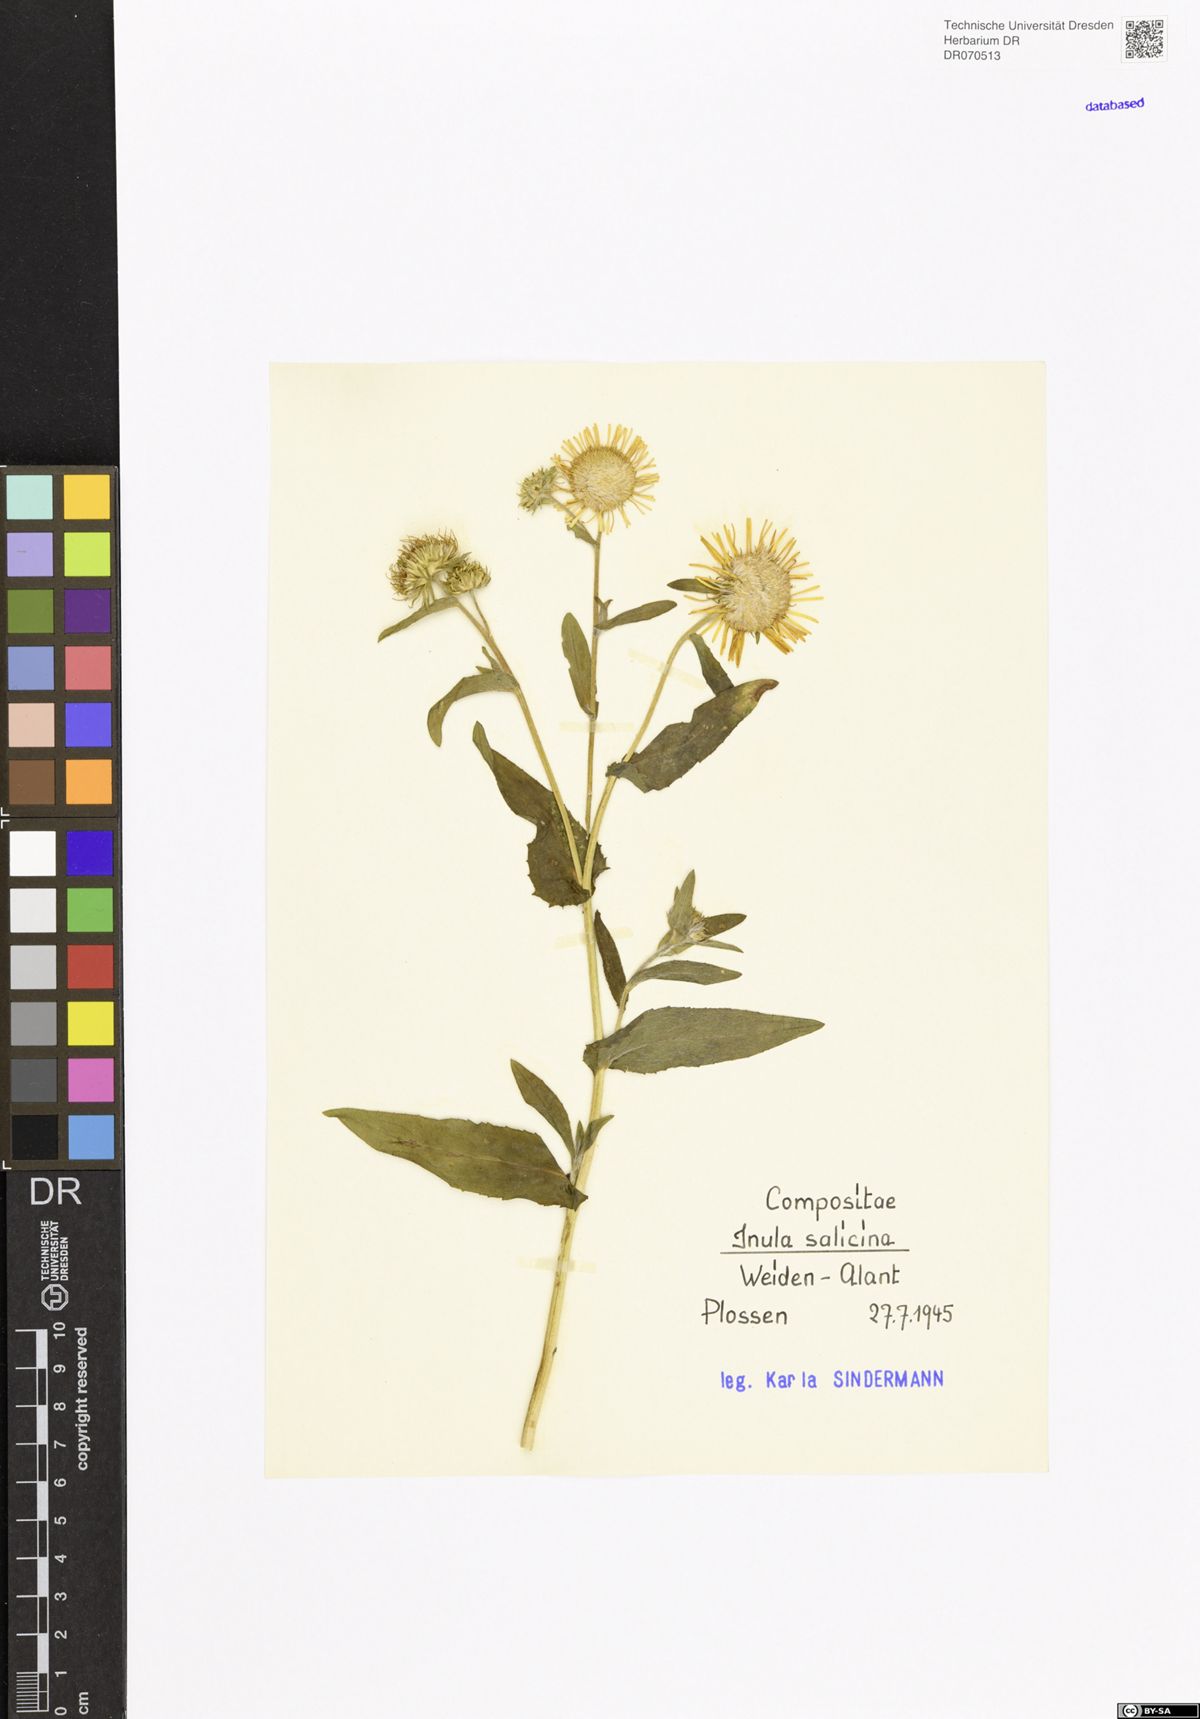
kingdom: Plantae
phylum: Tracheophyta
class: Magnoliopsida
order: Asterales
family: Asteraceae
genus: Pentanema
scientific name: Pentanema salicinum
